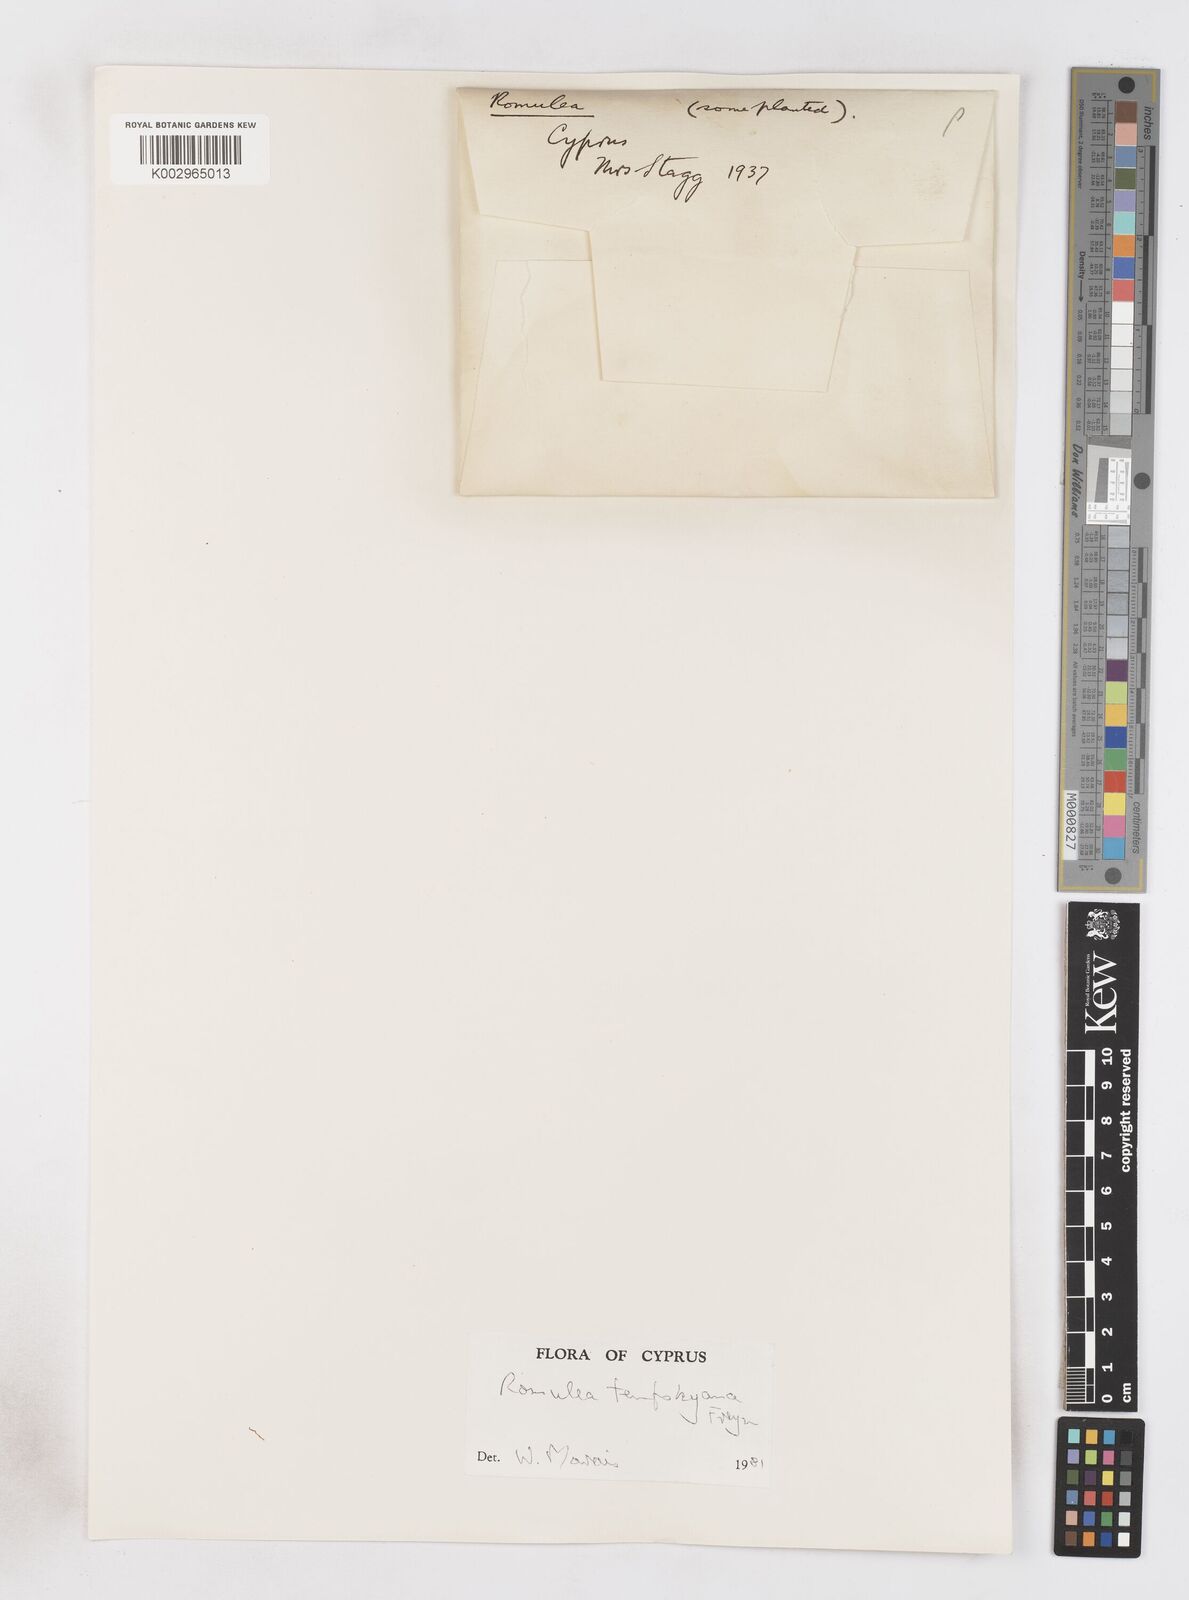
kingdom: Plantae
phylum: Tracheophyta
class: Liliopsida
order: Asparagales
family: Iridaceae
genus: Romulea
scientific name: Romulea tempskyana
